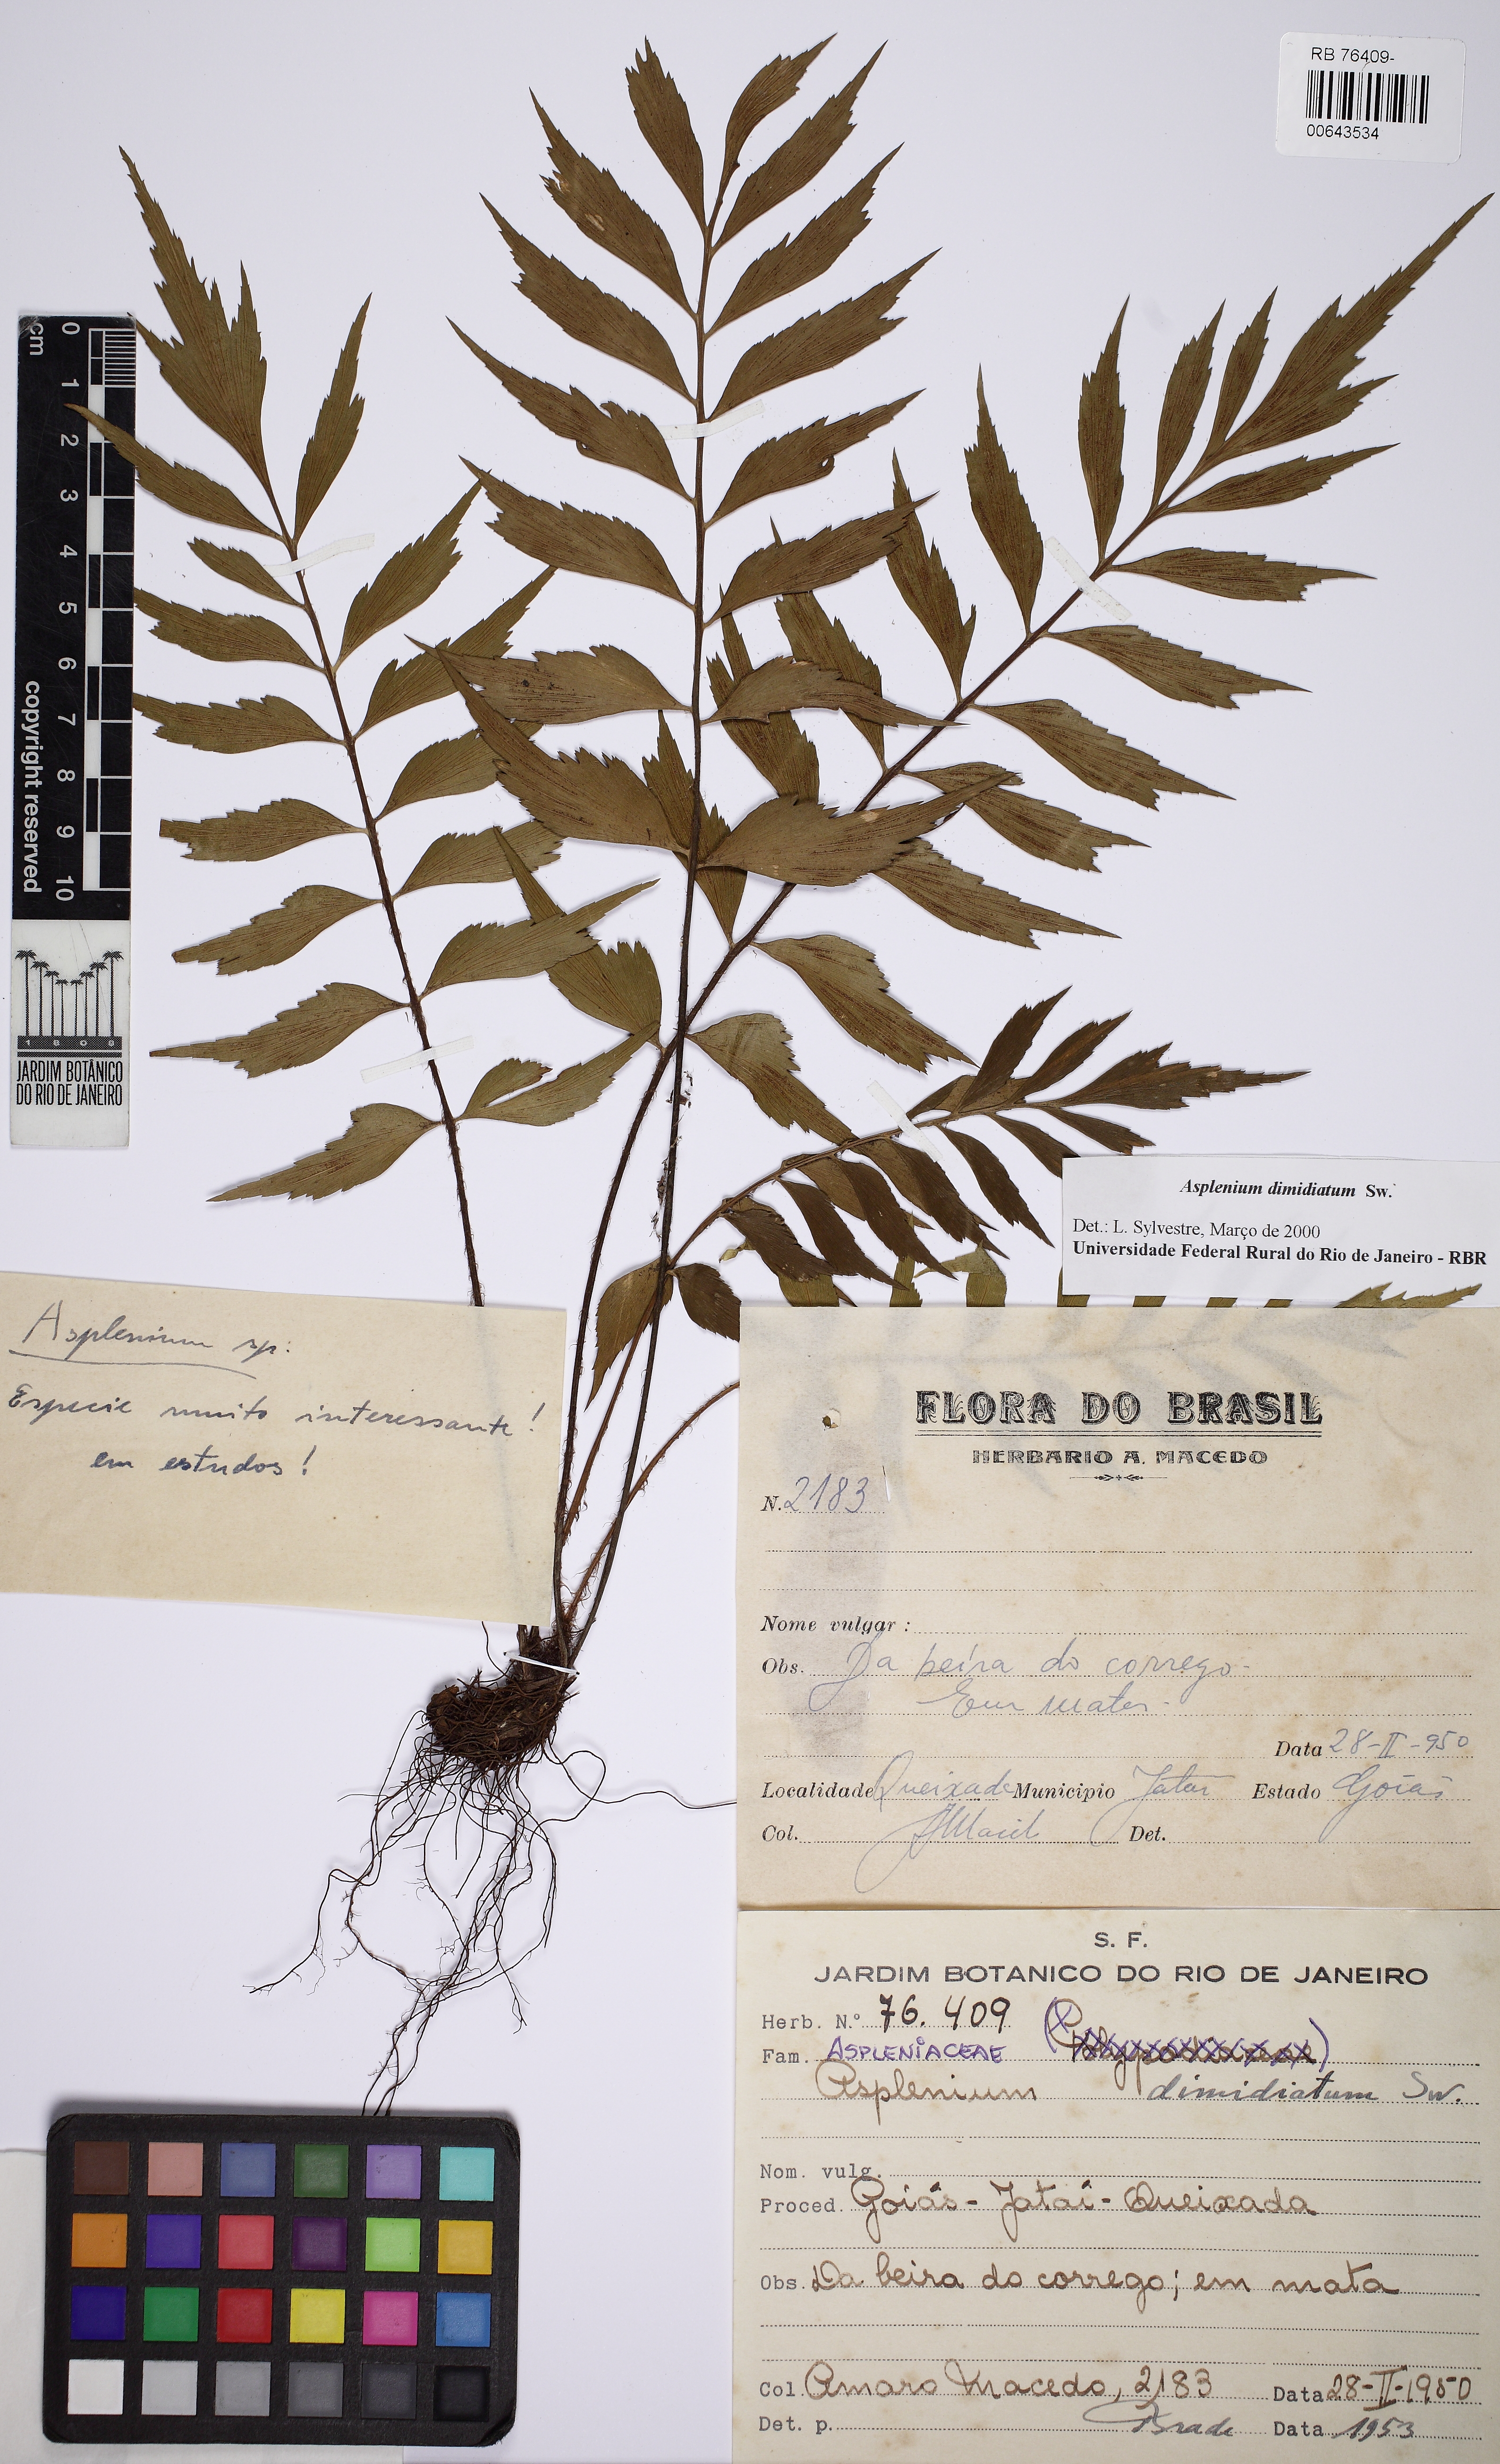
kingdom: Plantae
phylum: Tracheophyta
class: Polypodiopsida
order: Polypodiales
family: Aspleniaceae
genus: Asplenium
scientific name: Asplenium dimidiatum
